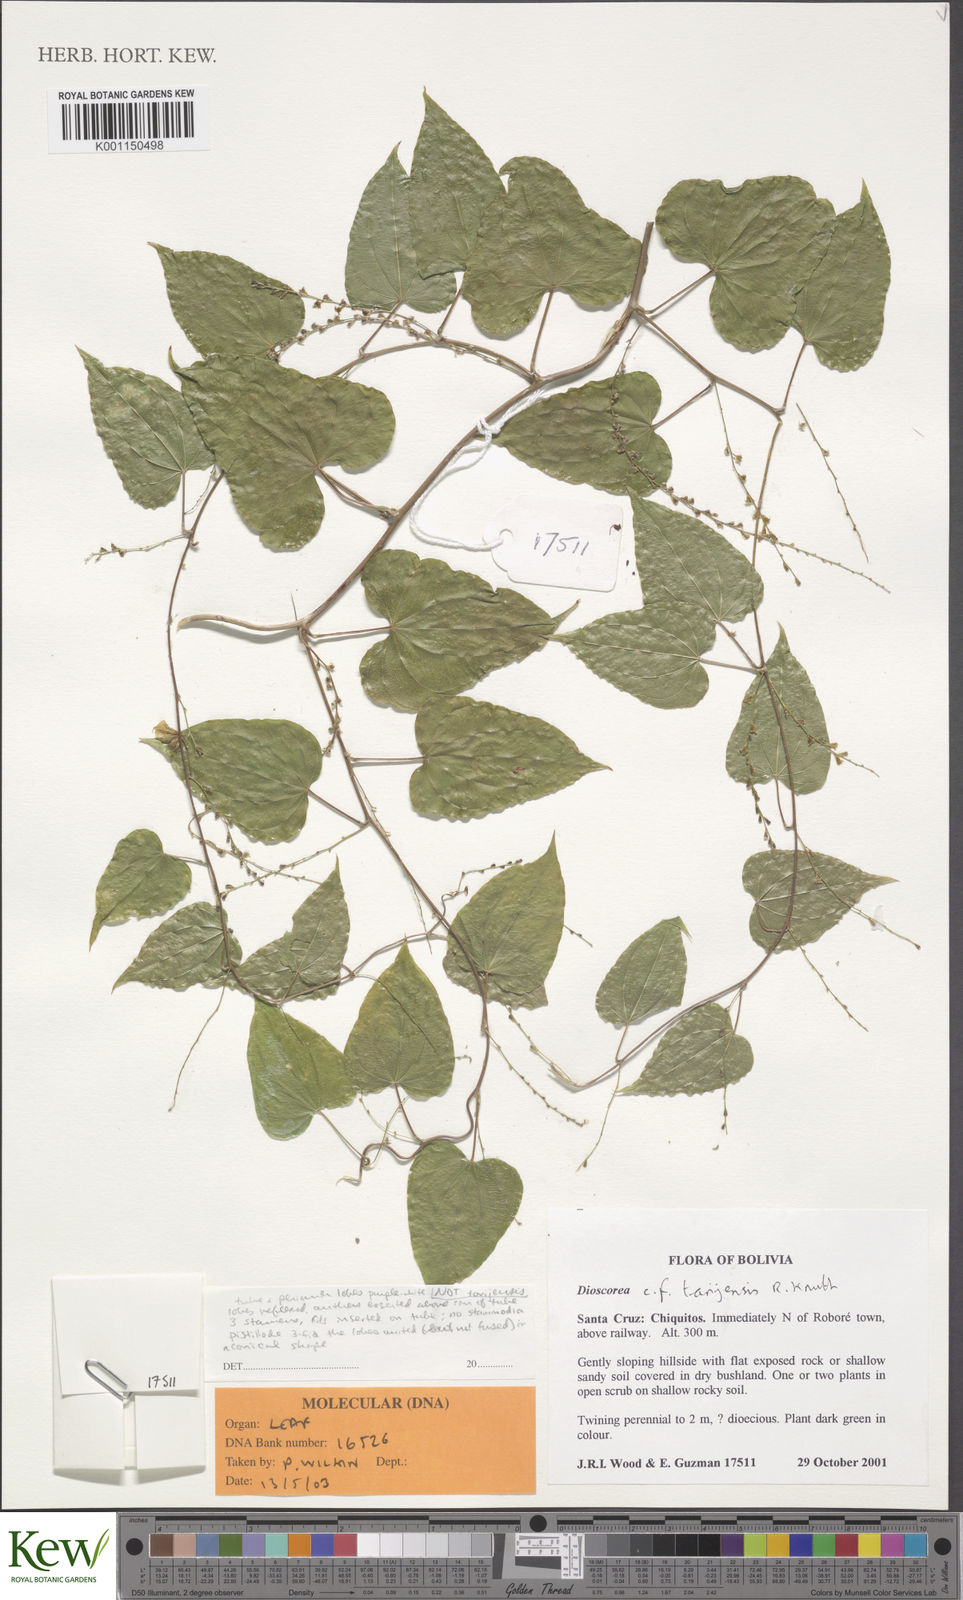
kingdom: Plantae
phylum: Tracheophyta
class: Liliopsida
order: Dioscoreales
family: Dioscoreaceae
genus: Dioscorea
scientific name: Dioscorea orthogoneura
